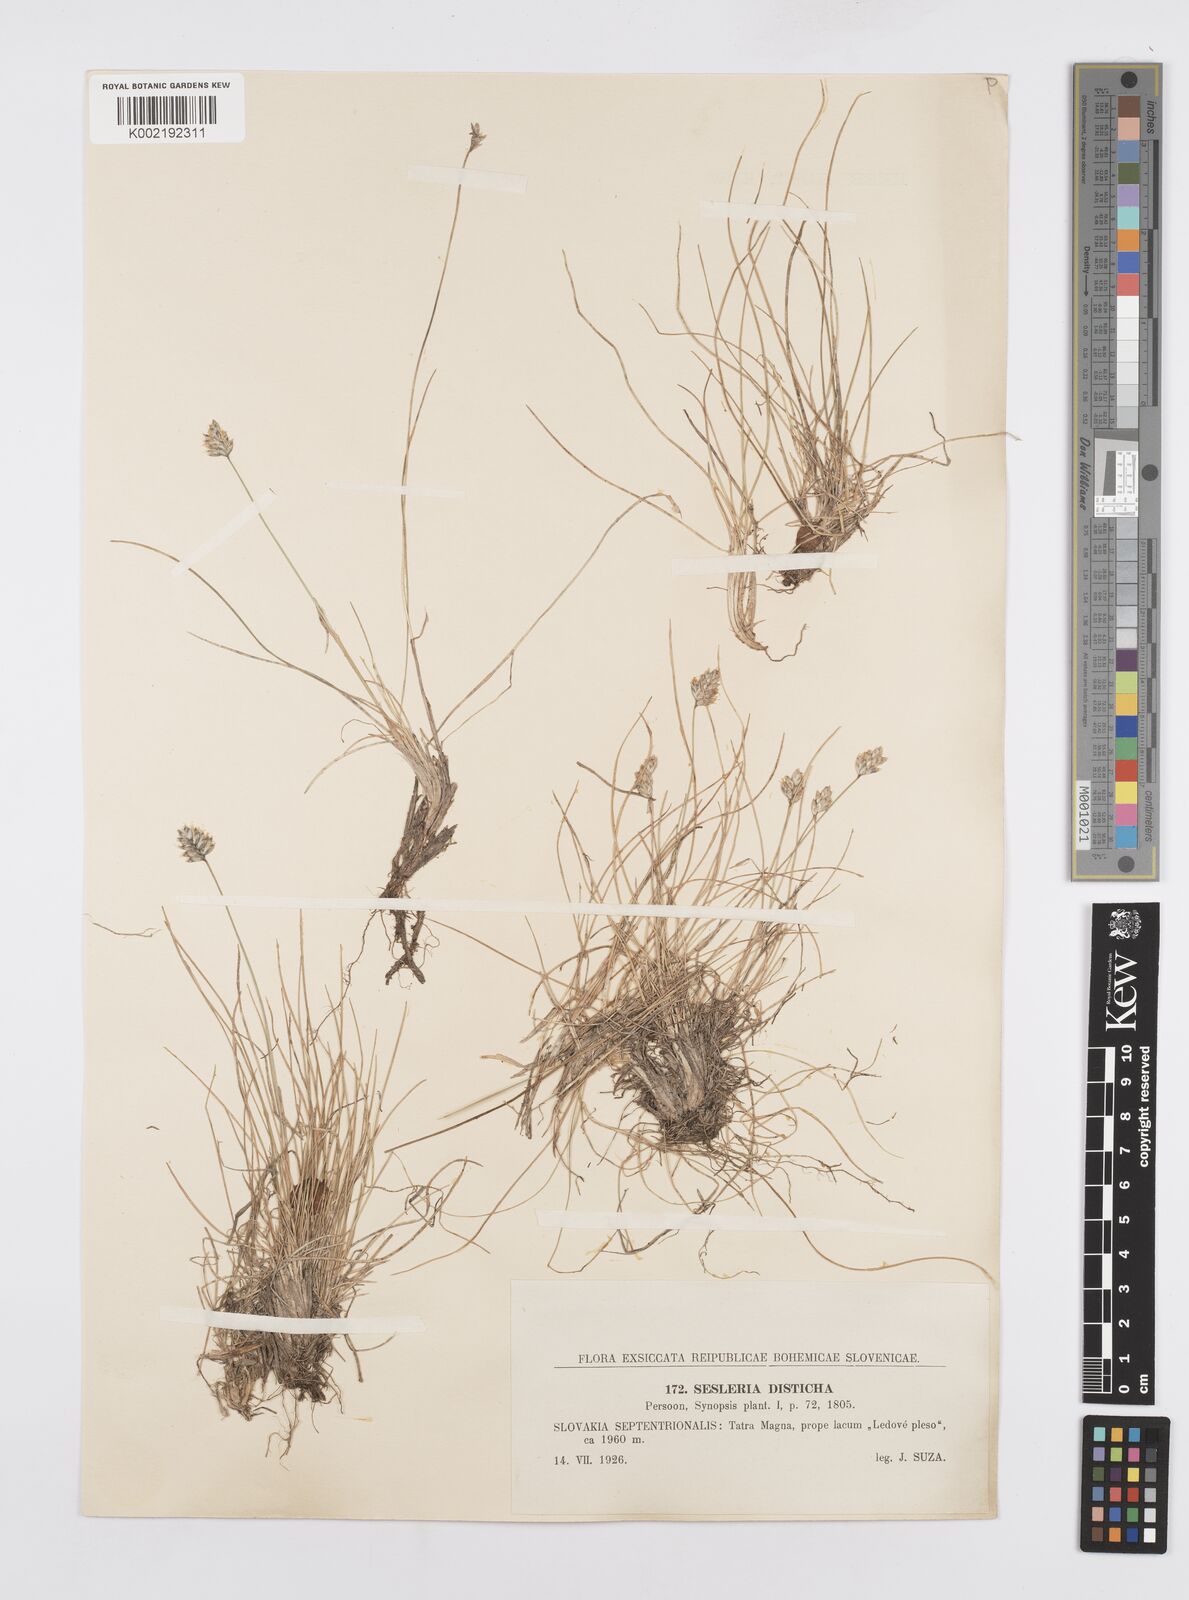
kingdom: Plantae
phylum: Tracheophyta
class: Liliopsida
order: Poales
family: Poaceae
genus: Oreochloa
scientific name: Oreochloa disticha
